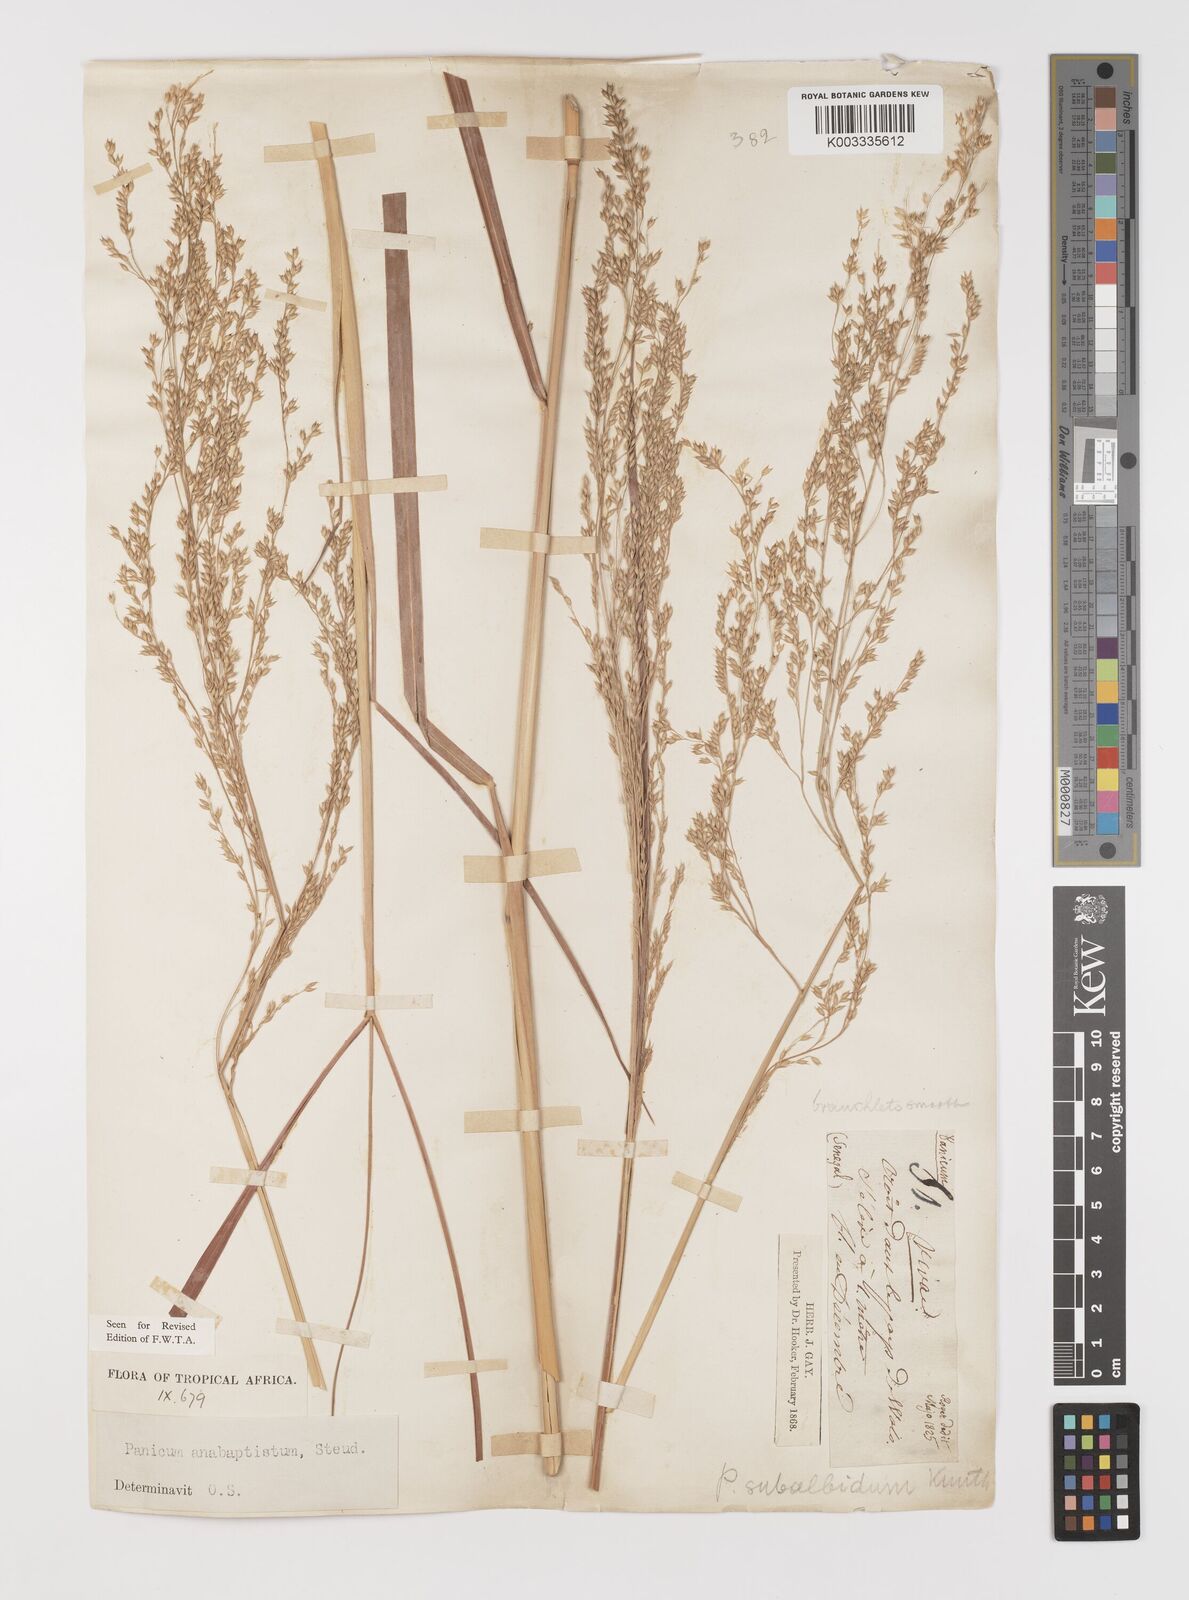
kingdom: Plantae
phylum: Tracheophyta
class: Liliopsida
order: Poales
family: Poaceae
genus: Panicum
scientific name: Panicum anabaptistum
